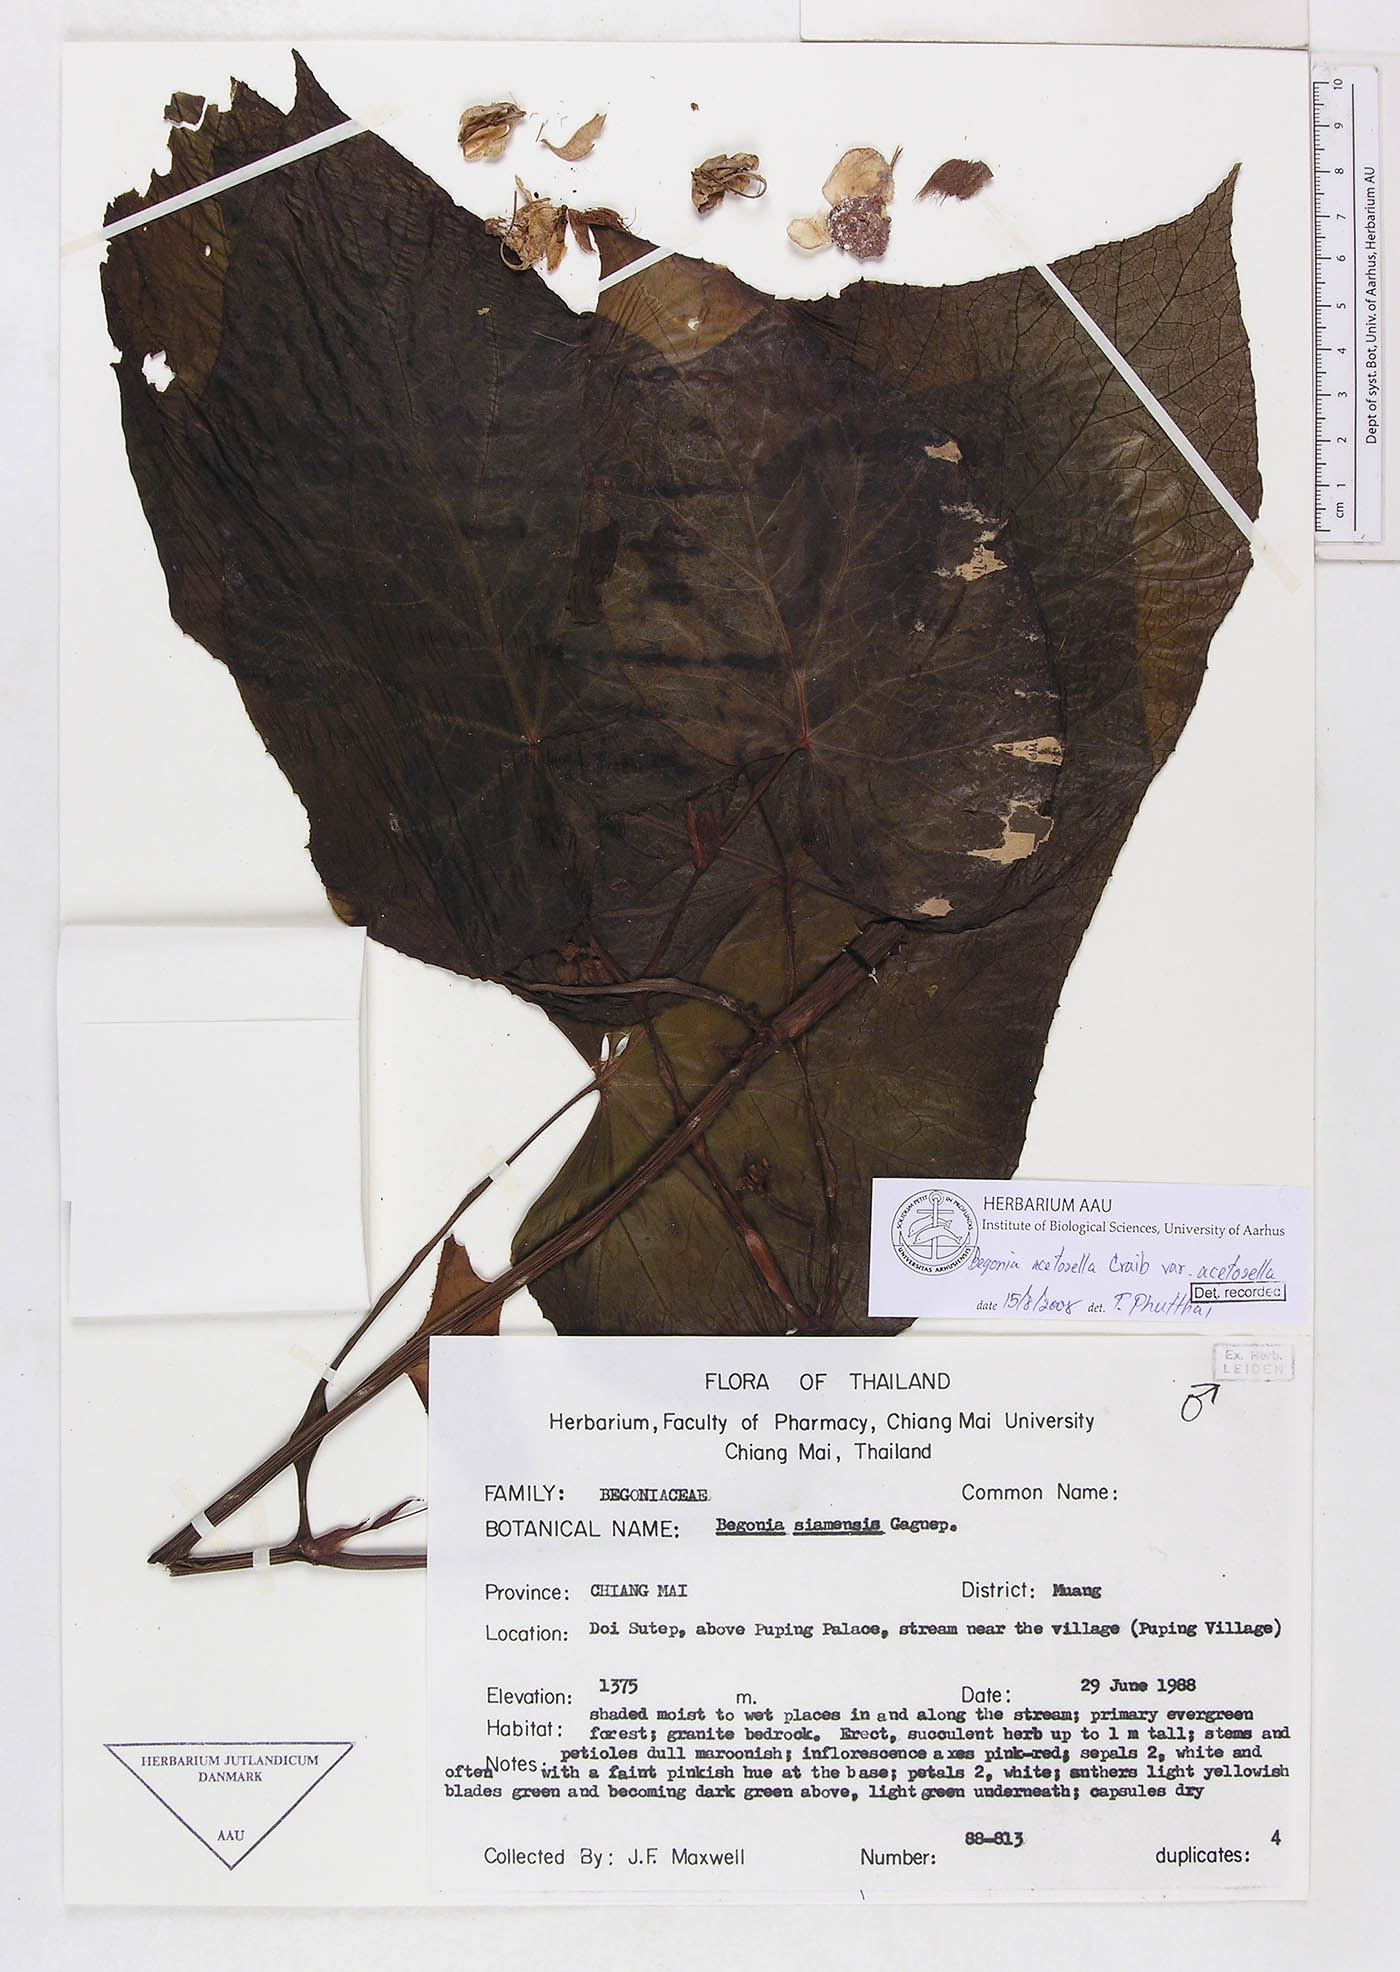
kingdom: Plantae
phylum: Tracheophyta
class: Magnoliopsida
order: Cucurbitales
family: Begoniaceae
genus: Begonia
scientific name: Begonia acetosella
